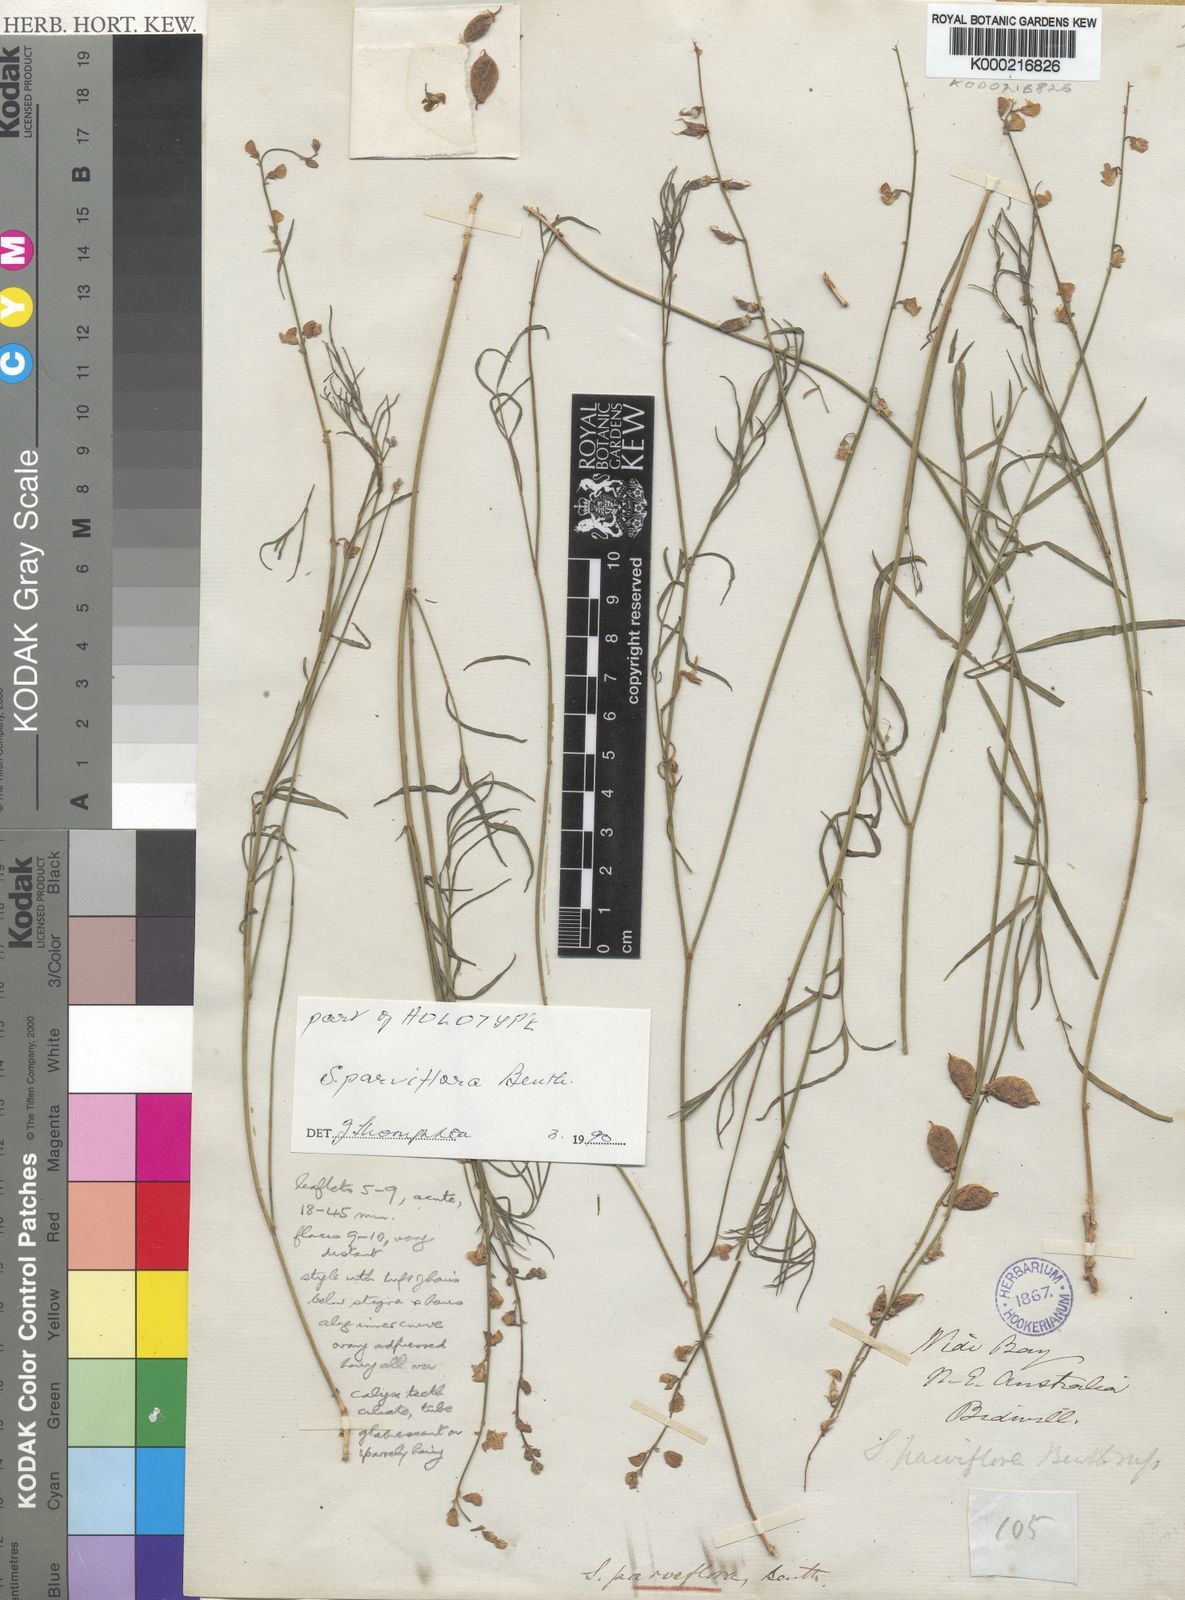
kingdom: Plantae
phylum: Tracheophyta
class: Magnoliopsida
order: Fabales
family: Fabaceae
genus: Swainsona
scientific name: Swainsona parviflora
